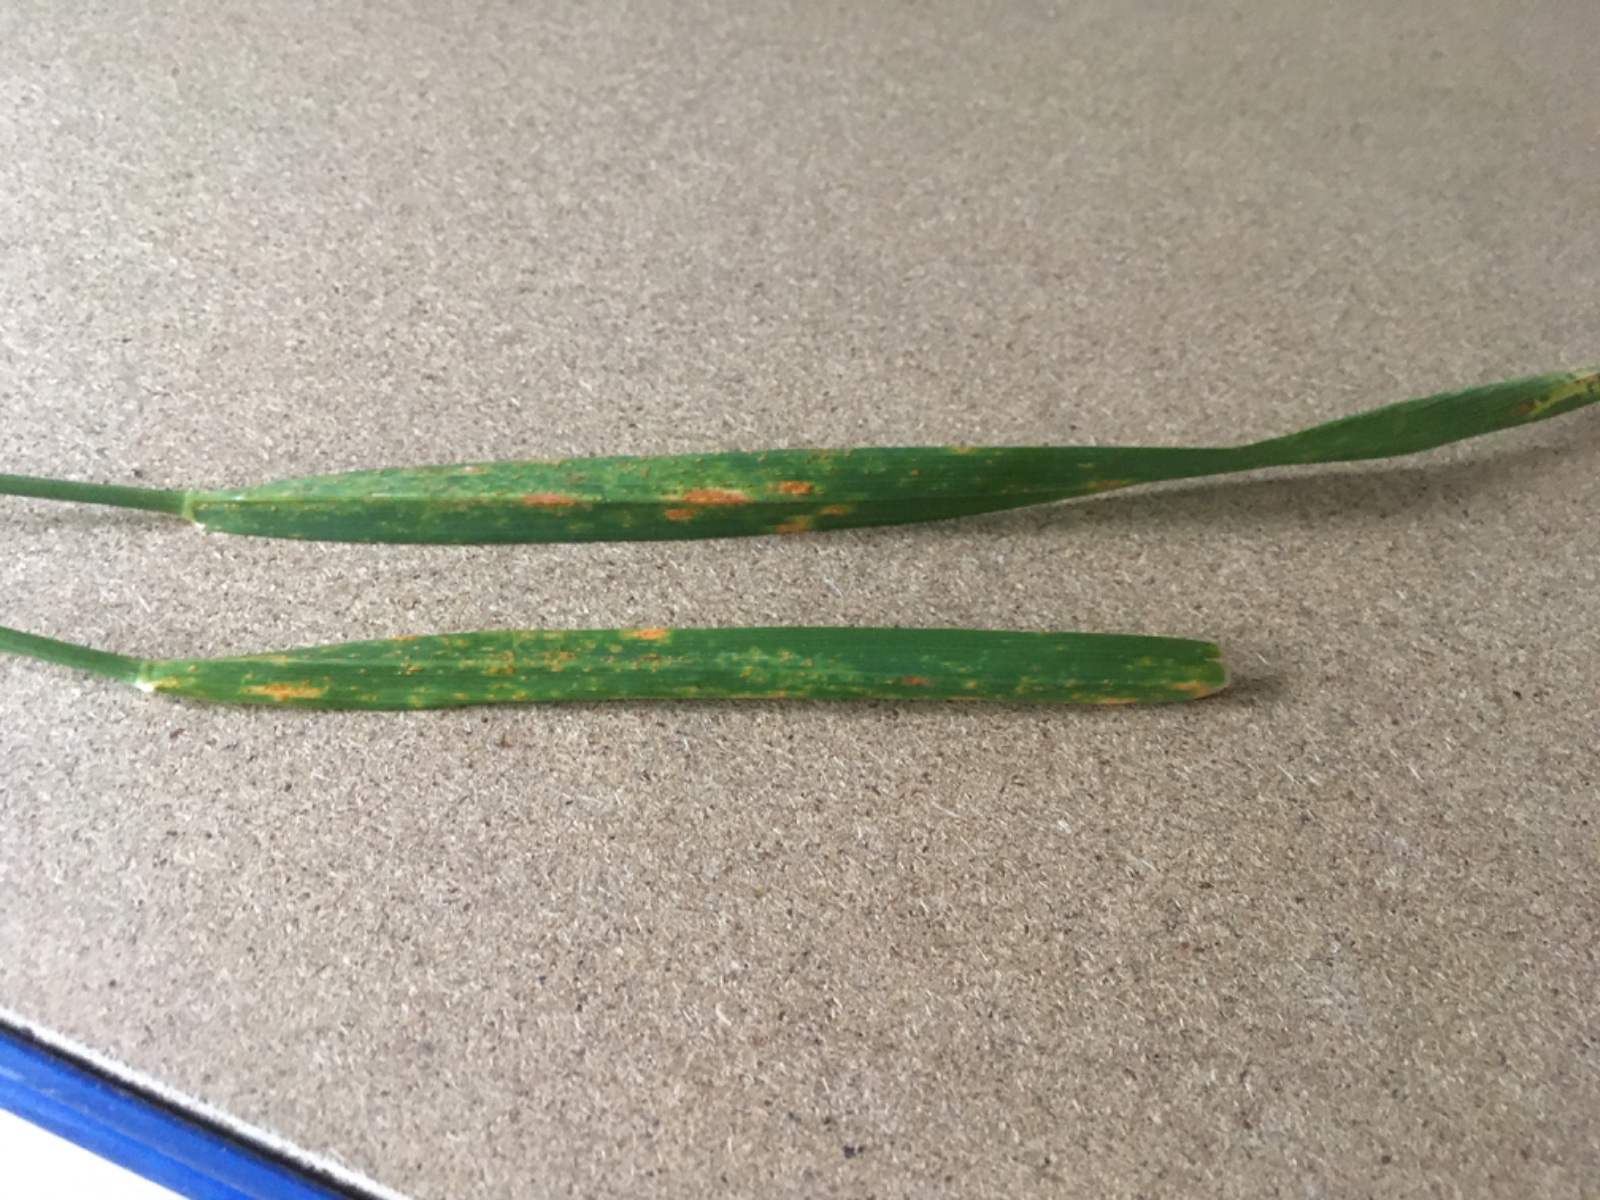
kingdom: Fungi
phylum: Basidiomycota
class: Pucciniomycetes
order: Pucciniales
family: Pucciniaceae
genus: Puccinia
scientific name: Puccinia
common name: tvecellerust
